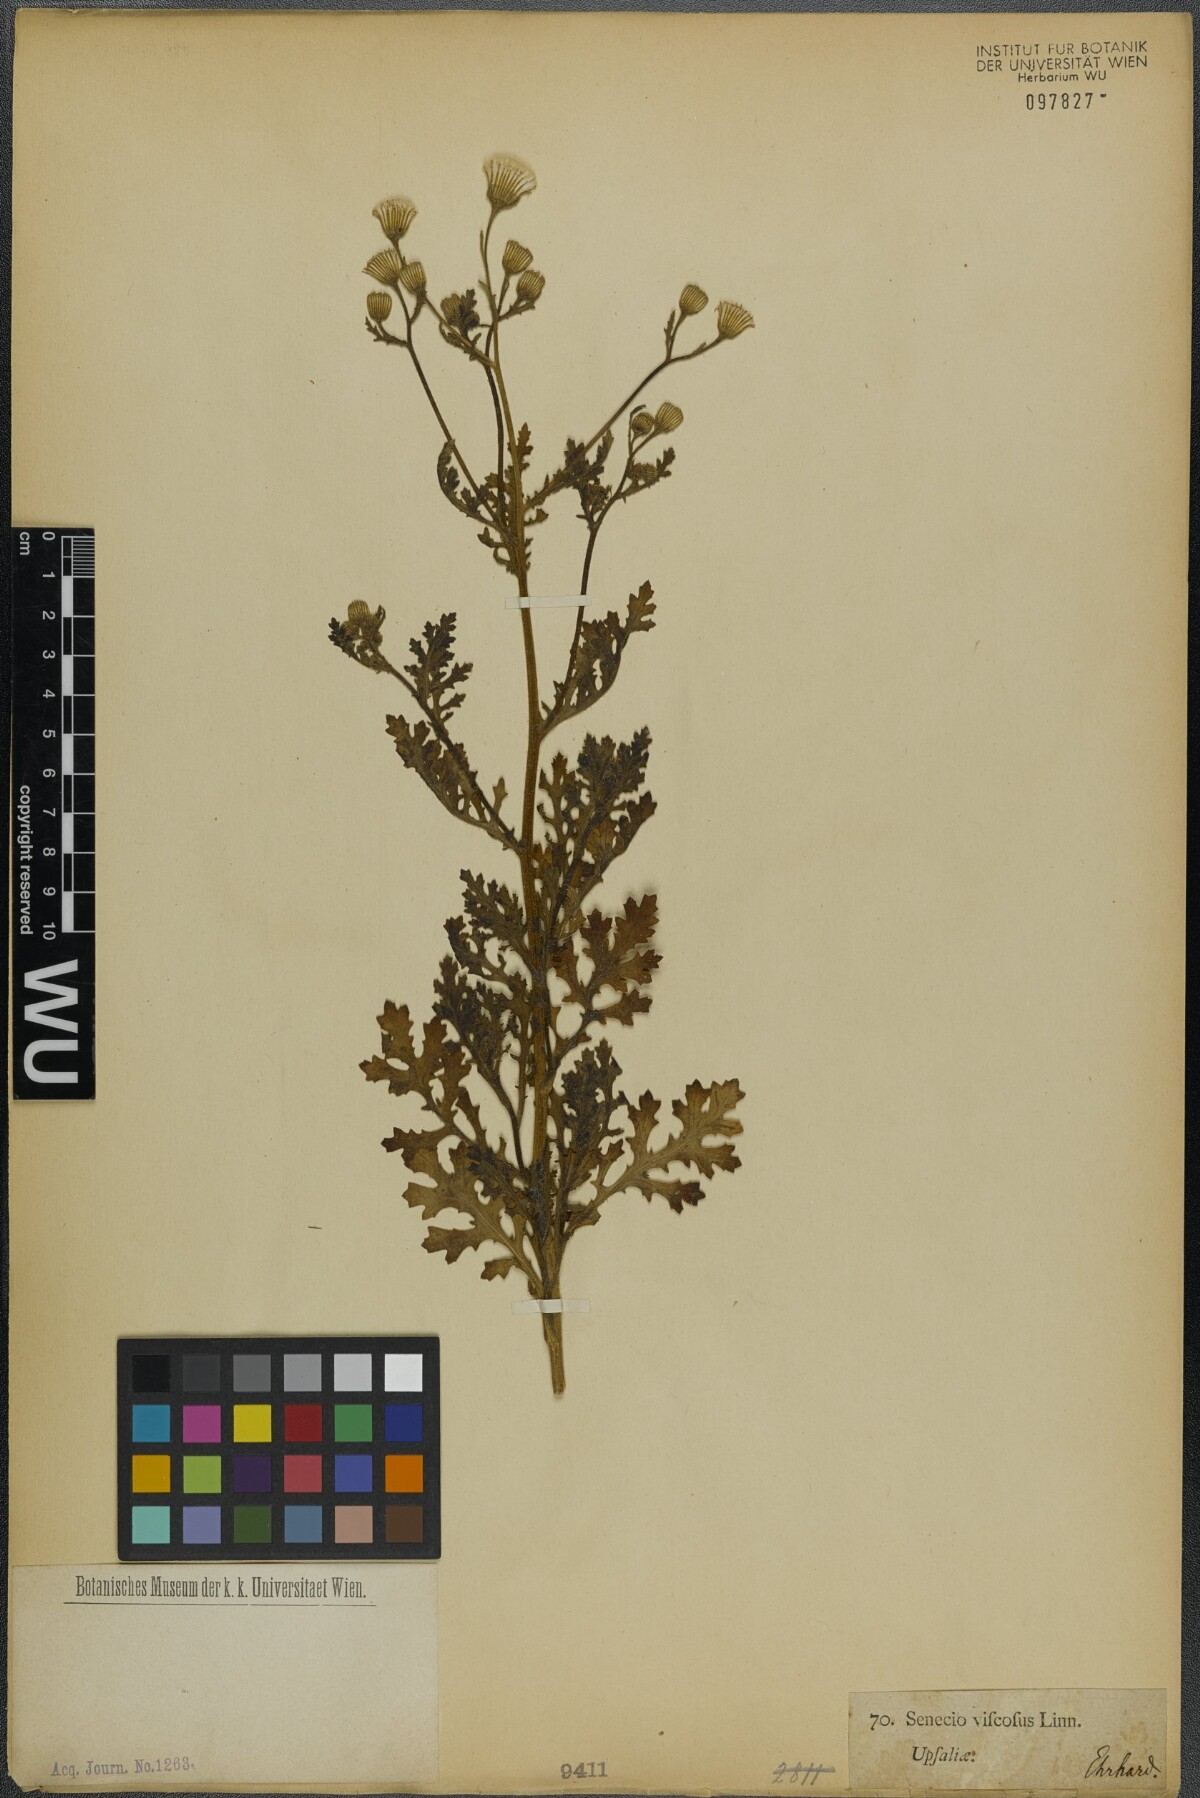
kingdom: Plantae
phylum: Tracheophyta
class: Magnoliopsida
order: Asterales
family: Asteraceae
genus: Senecio
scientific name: Senecio viscosus
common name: Sticky groundsel
